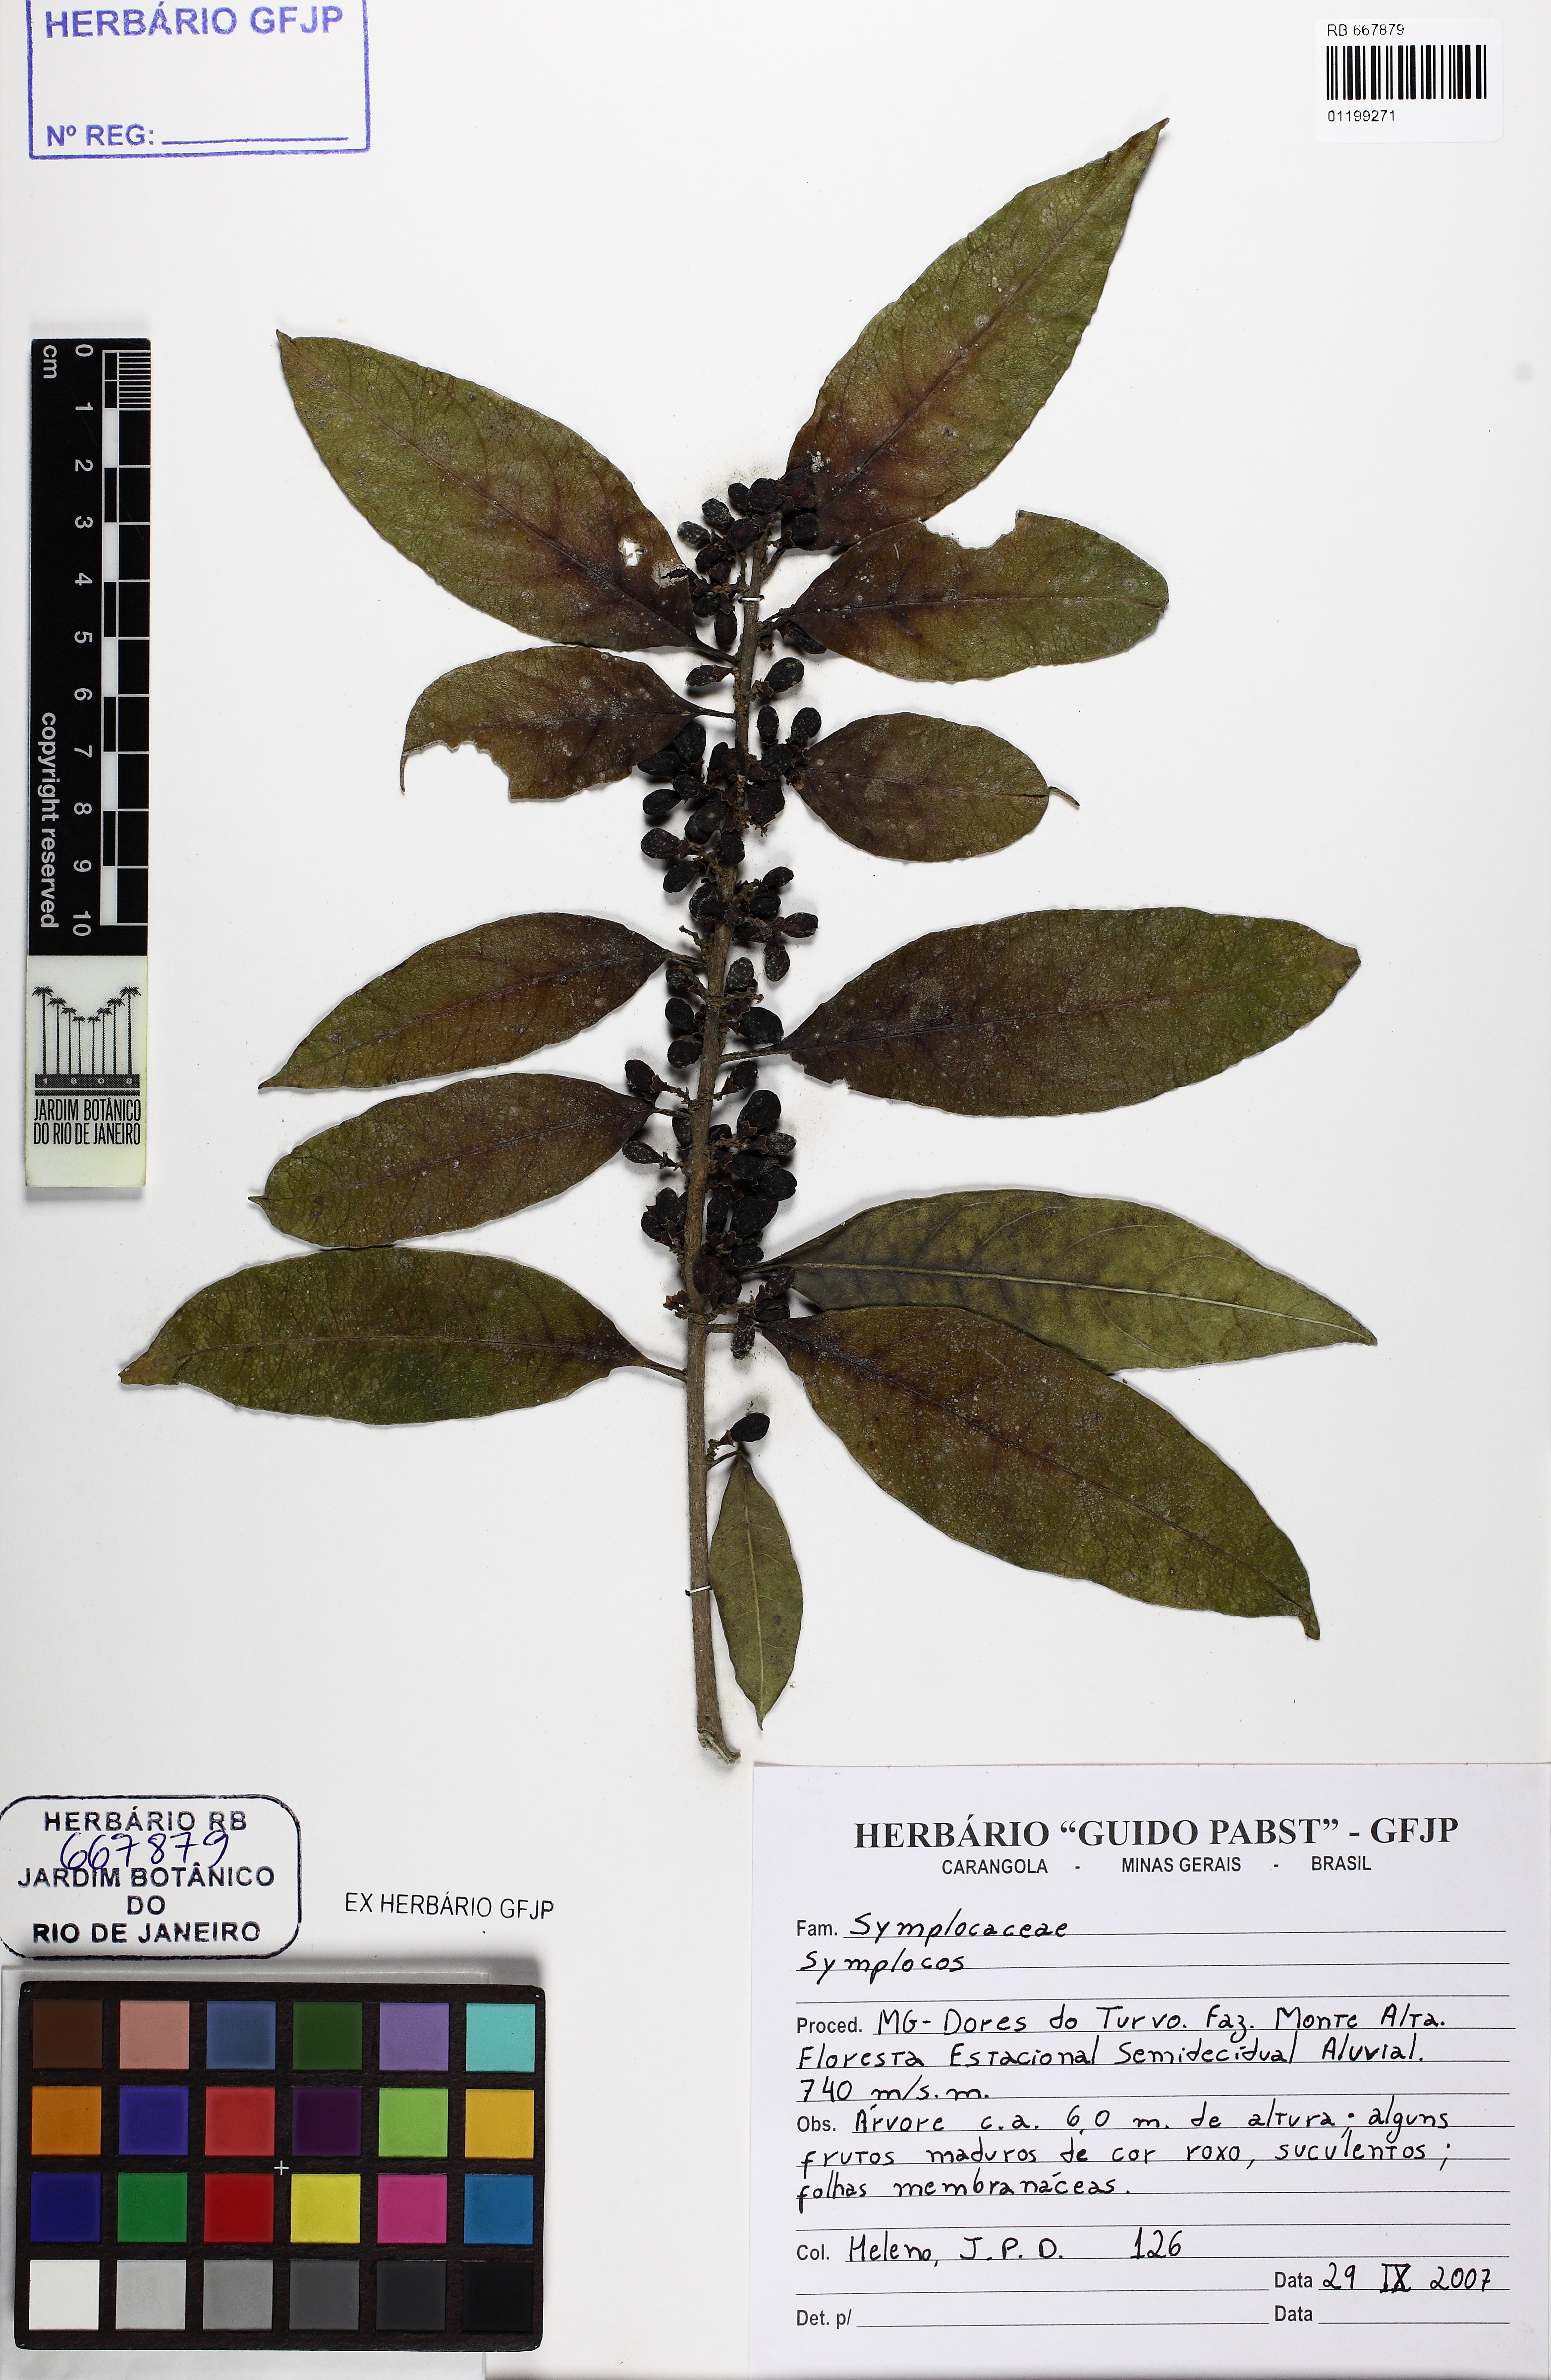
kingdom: Plantae
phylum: Tracheophyta
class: Magnoliopsida
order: Ericales
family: Symplocaceae
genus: Symplocos
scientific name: Symplocos
